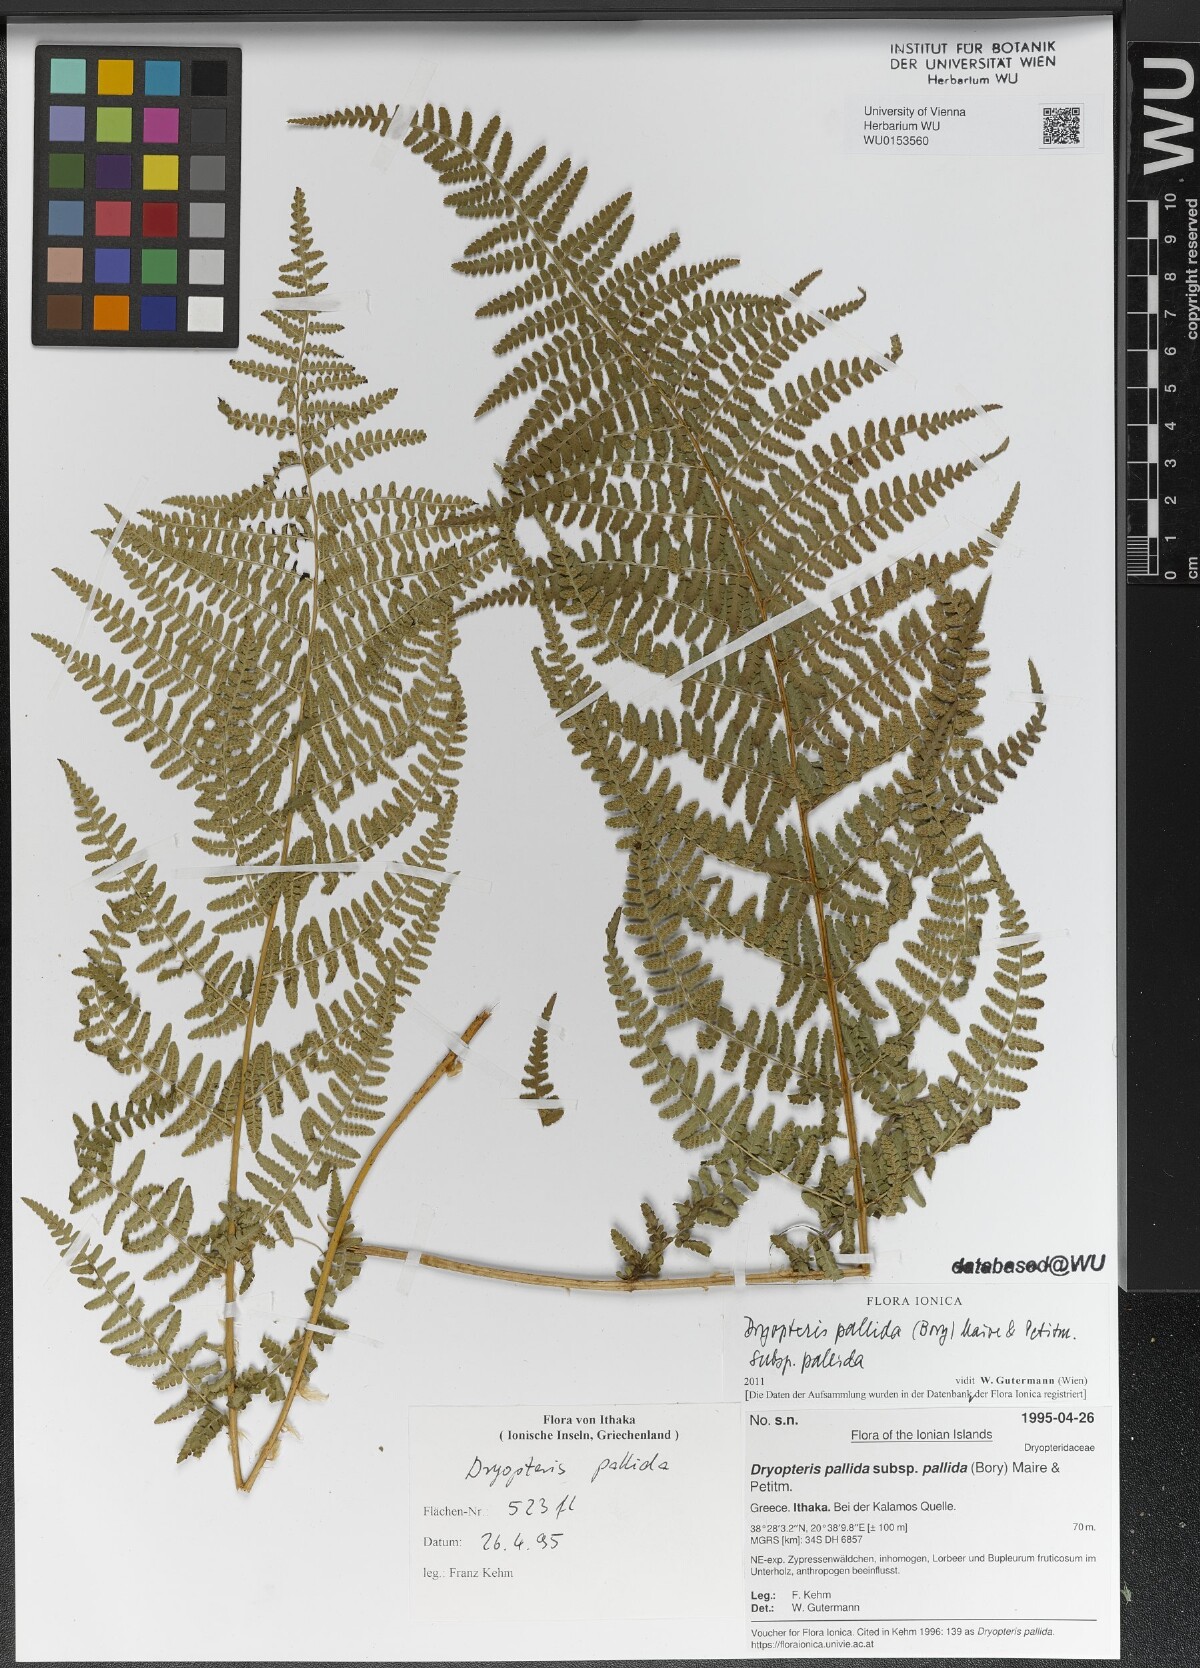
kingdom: Plantae
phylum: Tracheophyta
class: Polypodiopsida
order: Polypodiales
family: Dryopteridaceae
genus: Dryopteris
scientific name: Dryopteris pallida
